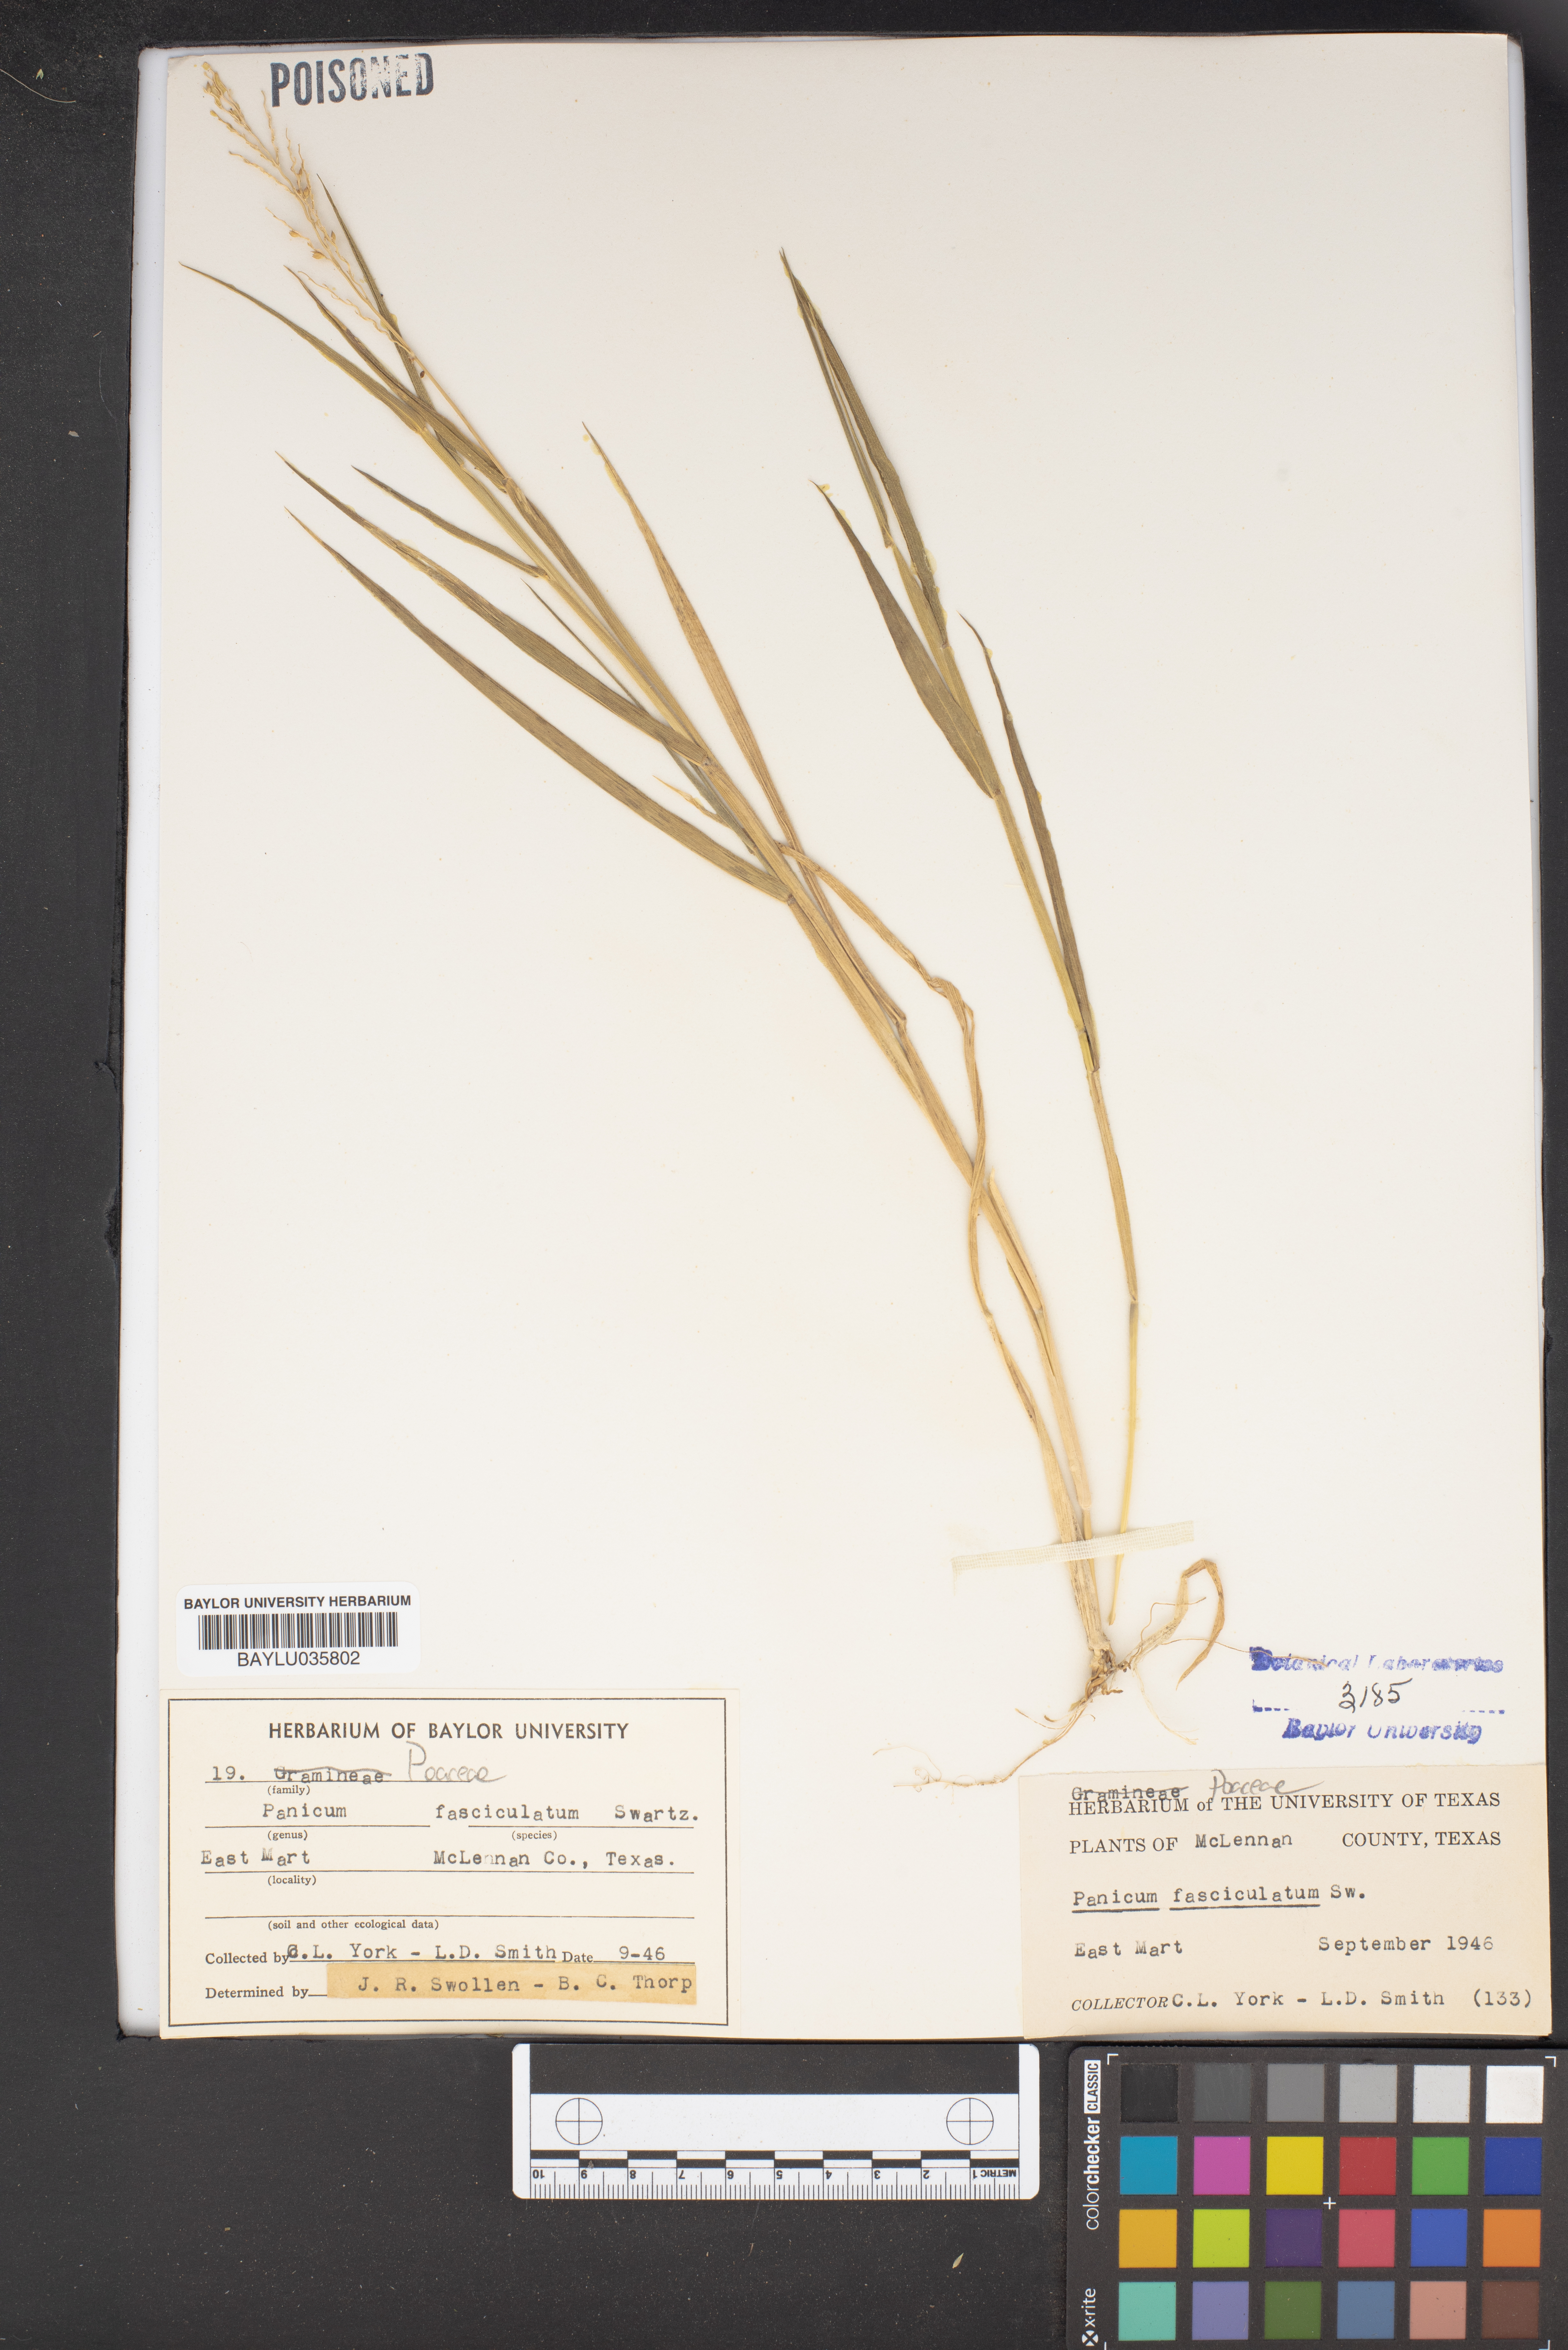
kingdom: Plantae
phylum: Tracheophyta
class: Liliopsida
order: Poales
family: Poaceae
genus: Urochloa
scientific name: Urochloa fusca
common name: Browntop signal grass
